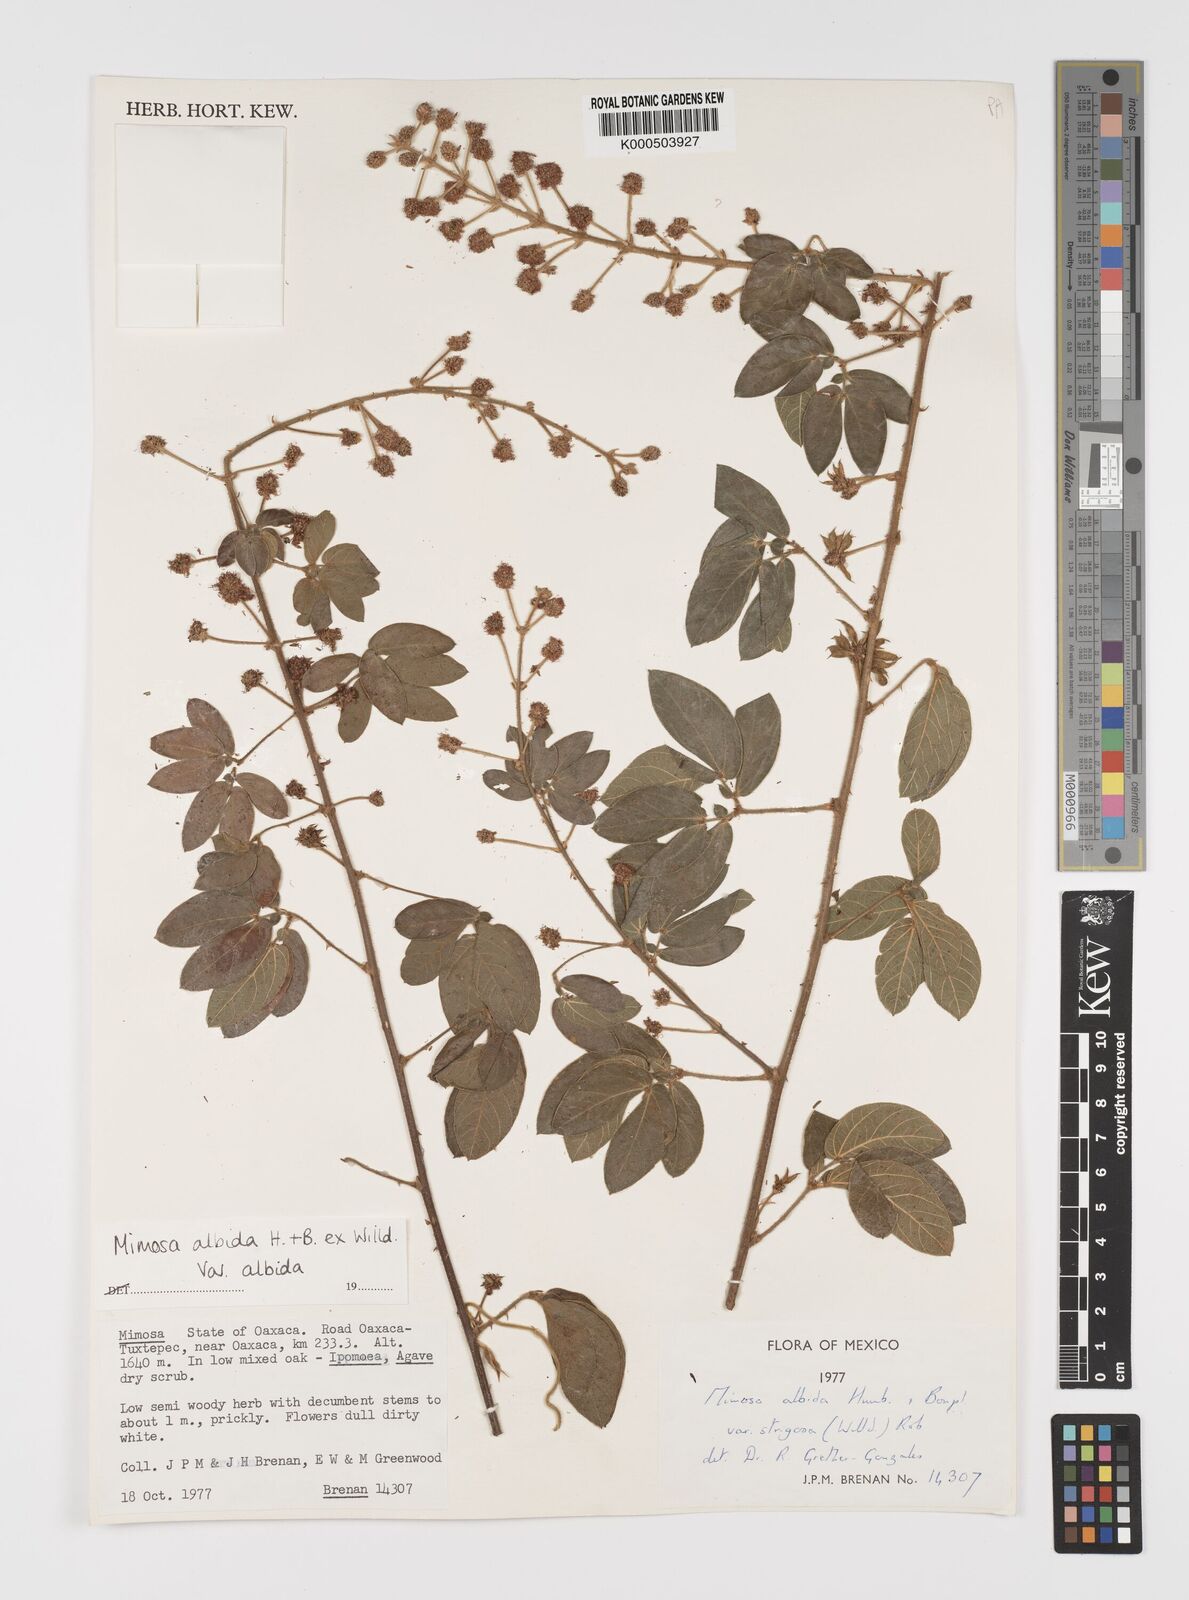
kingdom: Plantae
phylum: Tracheophyta
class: Magnoliopsida
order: Fabales
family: Fabaceae
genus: Mimosa
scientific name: Mimosa albida
